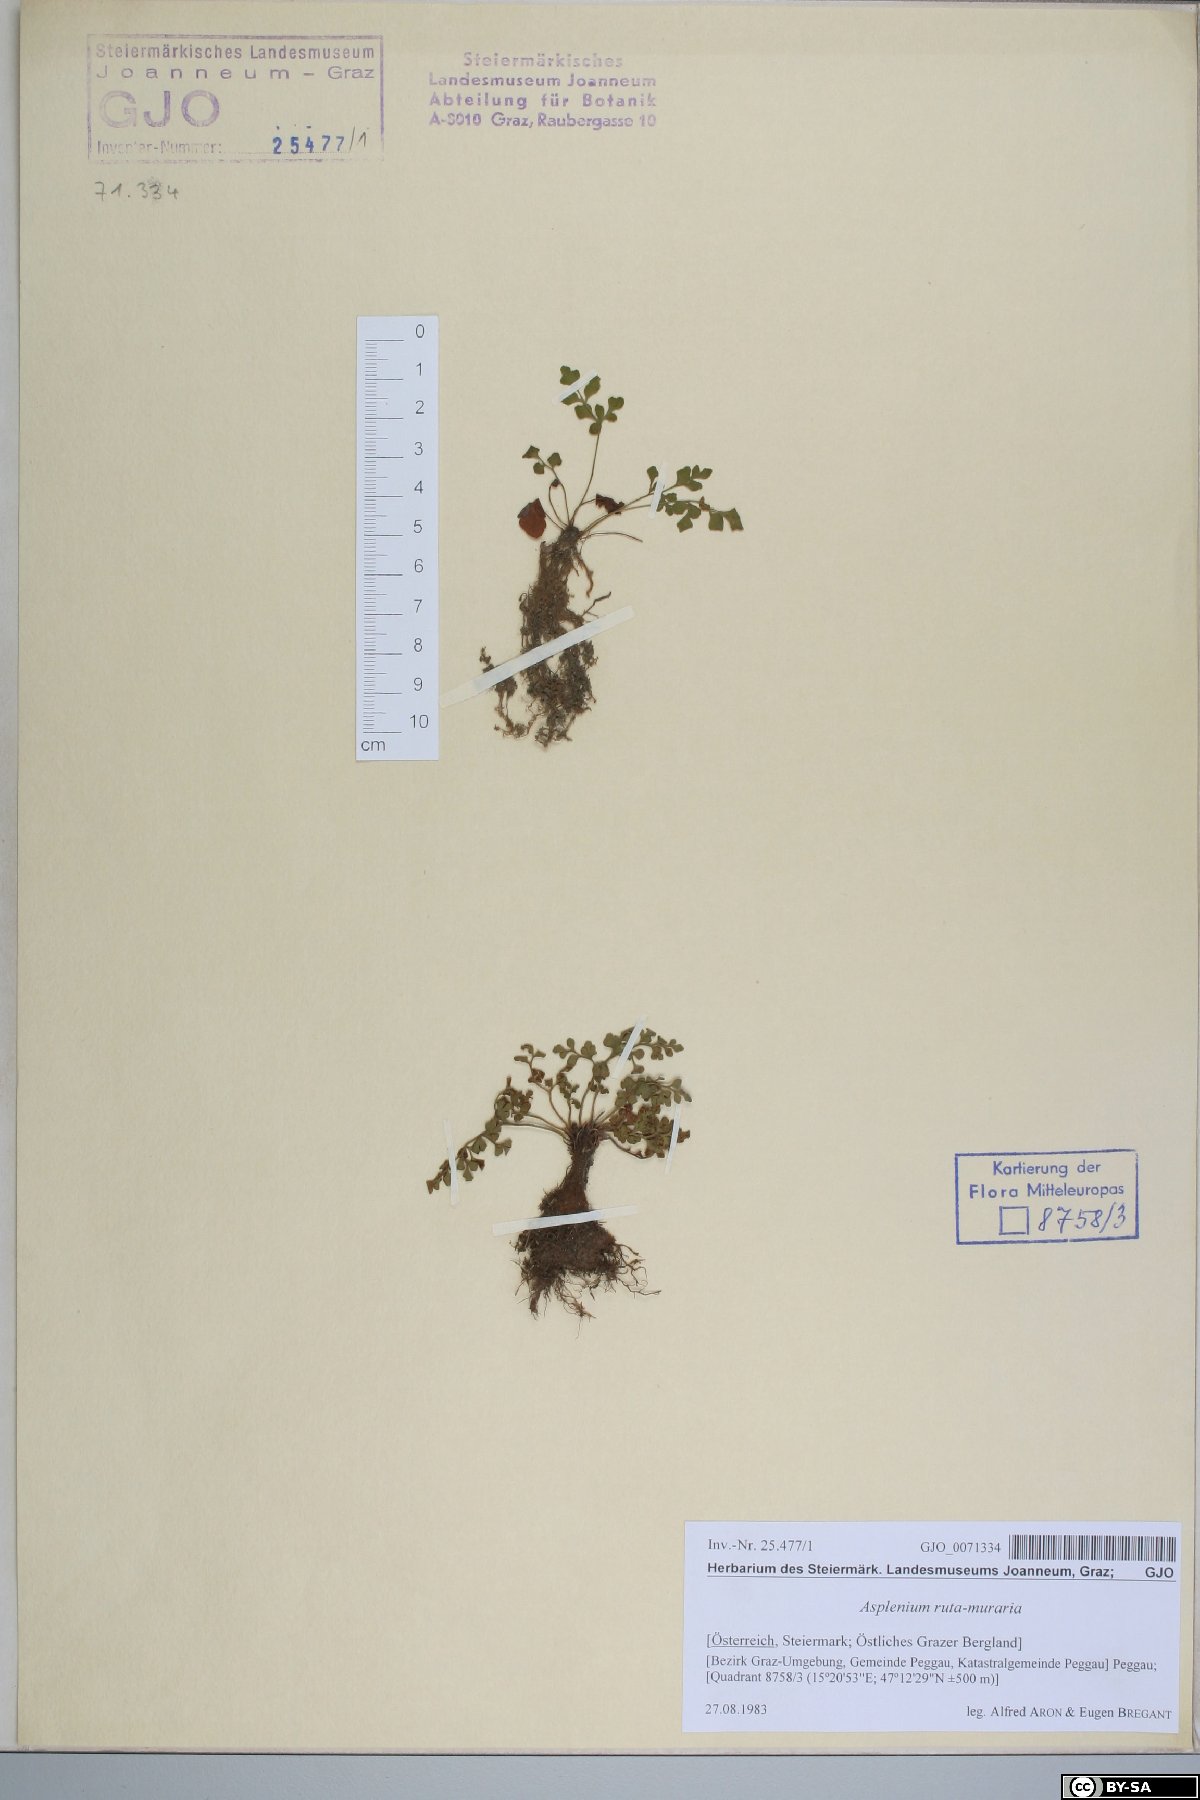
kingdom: Plantae
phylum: Tracheophyta
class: Polypodiopsida
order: Polypodiales
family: Aspleniaceae
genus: Asplenium
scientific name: Asplenium ruta-muraria
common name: Wall-rue
